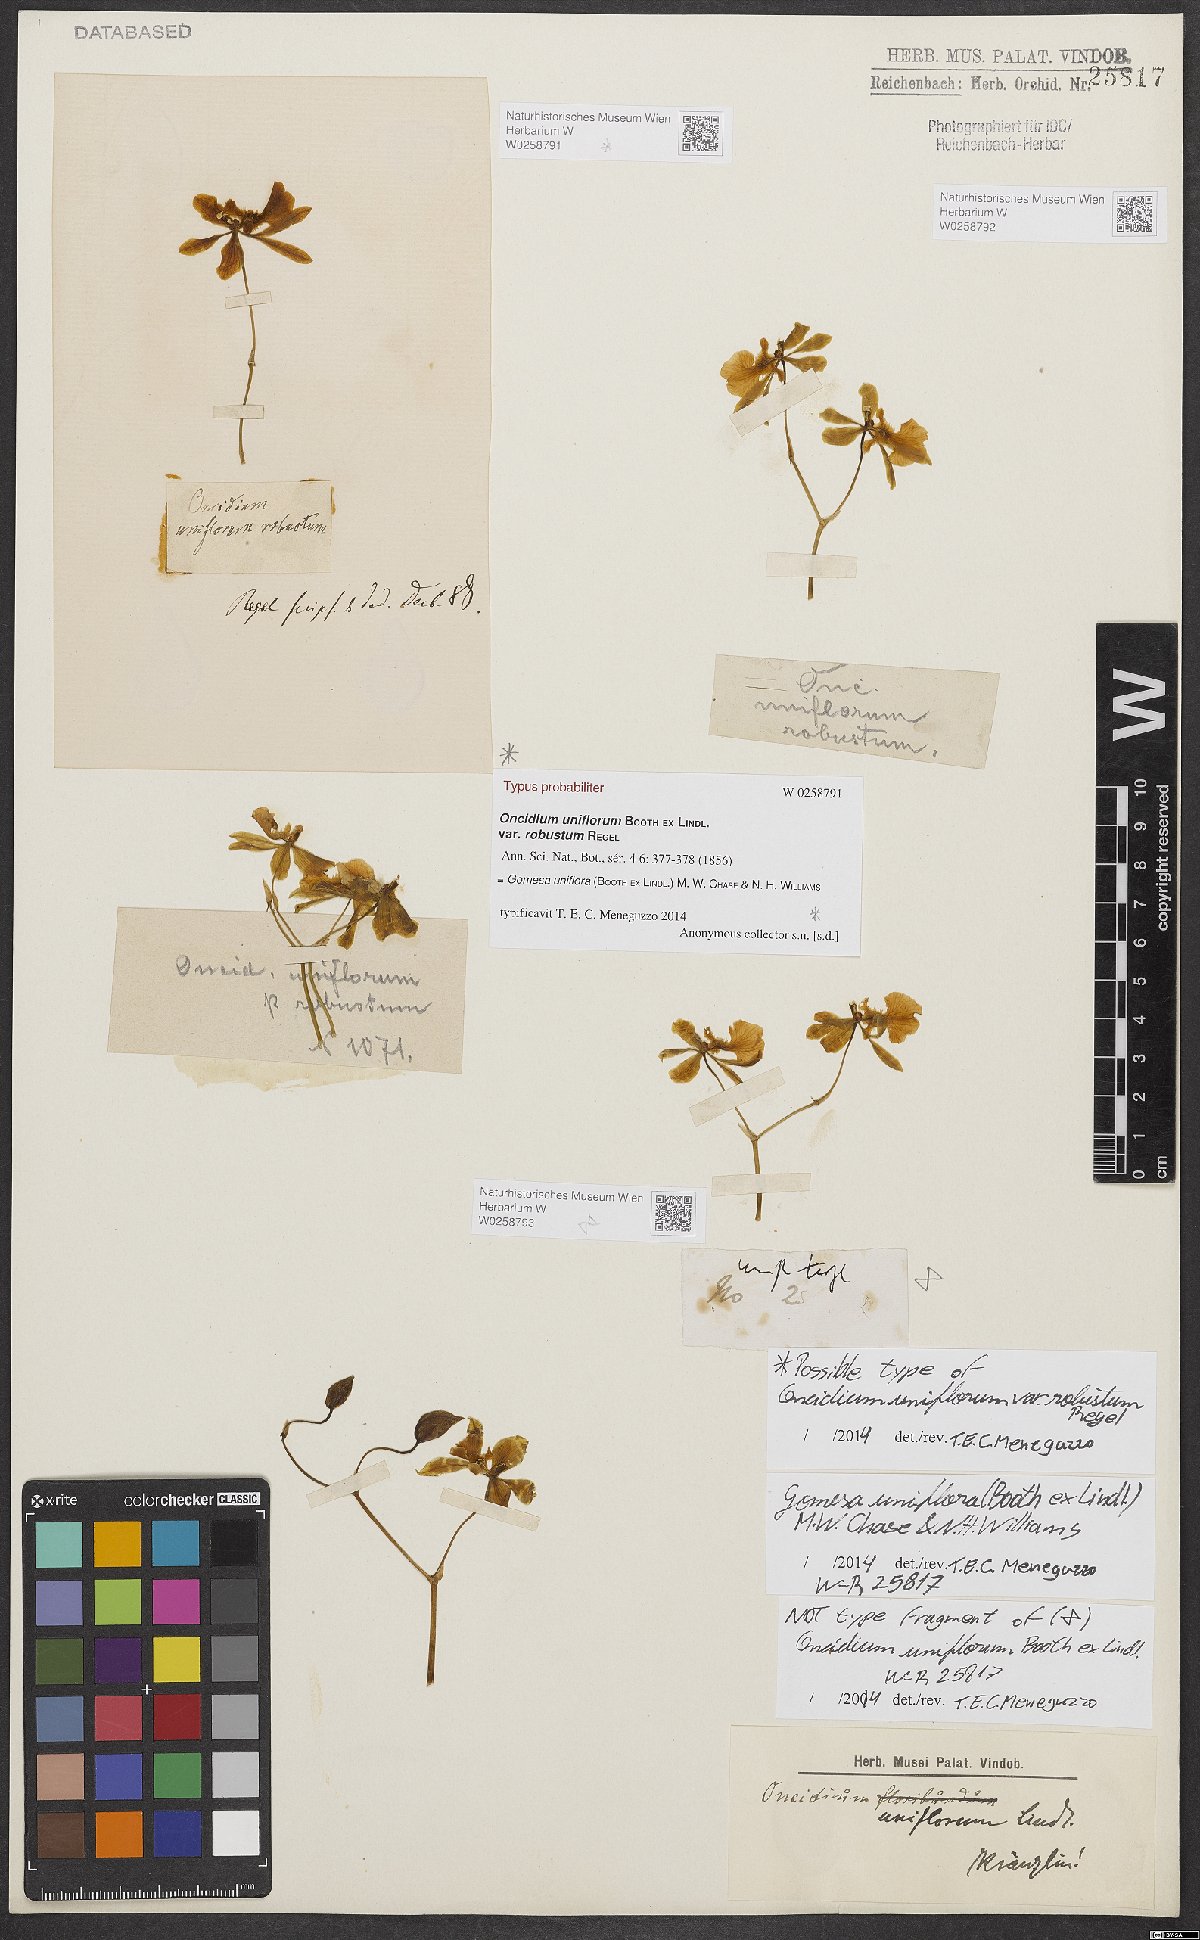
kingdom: Plantae
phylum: Tracheophyta
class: Liliopsida
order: Asparagales
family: Orchidaceae
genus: Gomesa
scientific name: Gomesa uniflora
